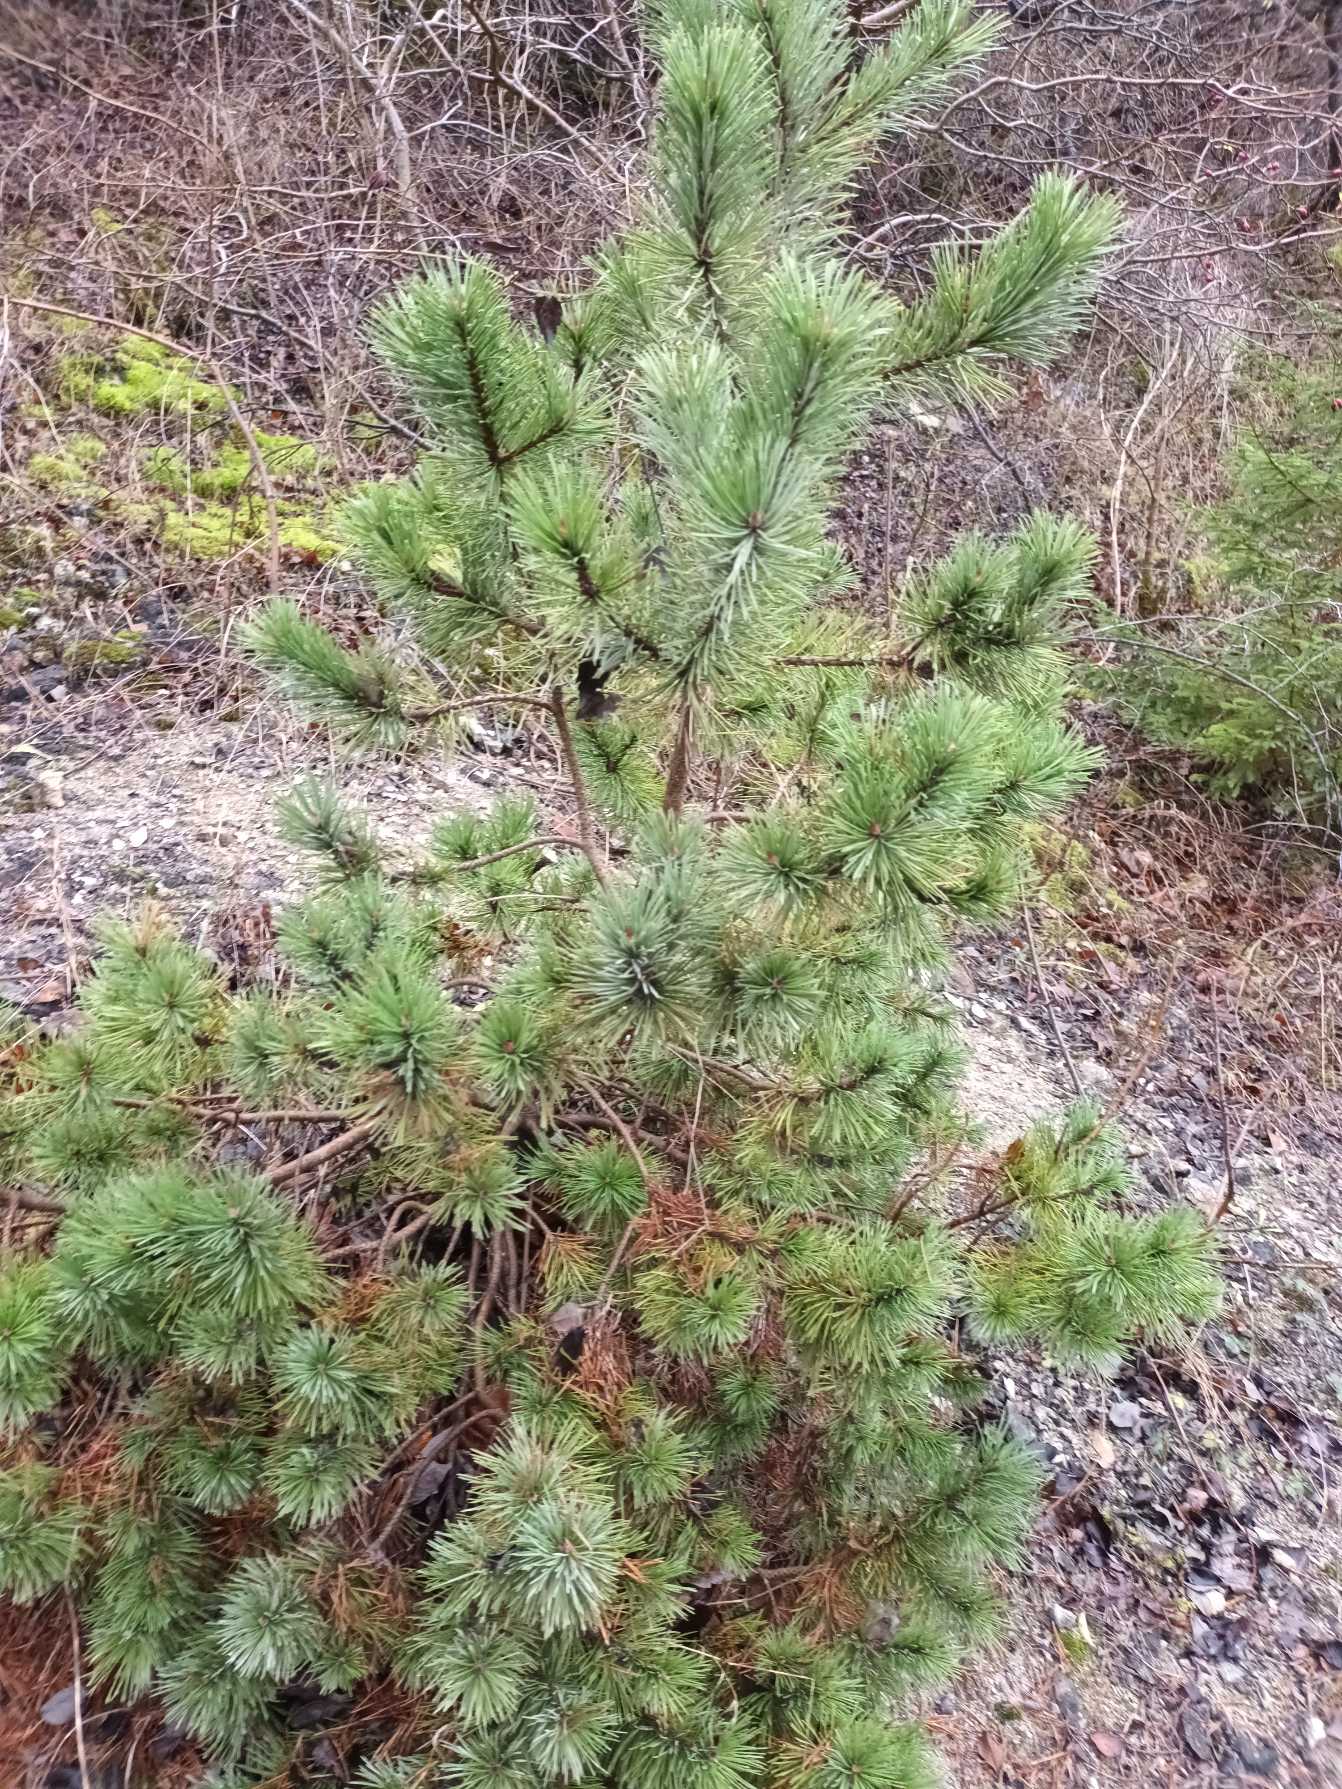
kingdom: Plantae
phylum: Tracheophyta
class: Pinopsida
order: Pinales
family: Pinaceae
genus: Pinus
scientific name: Pinus mugo
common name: Bjerg-fyr
